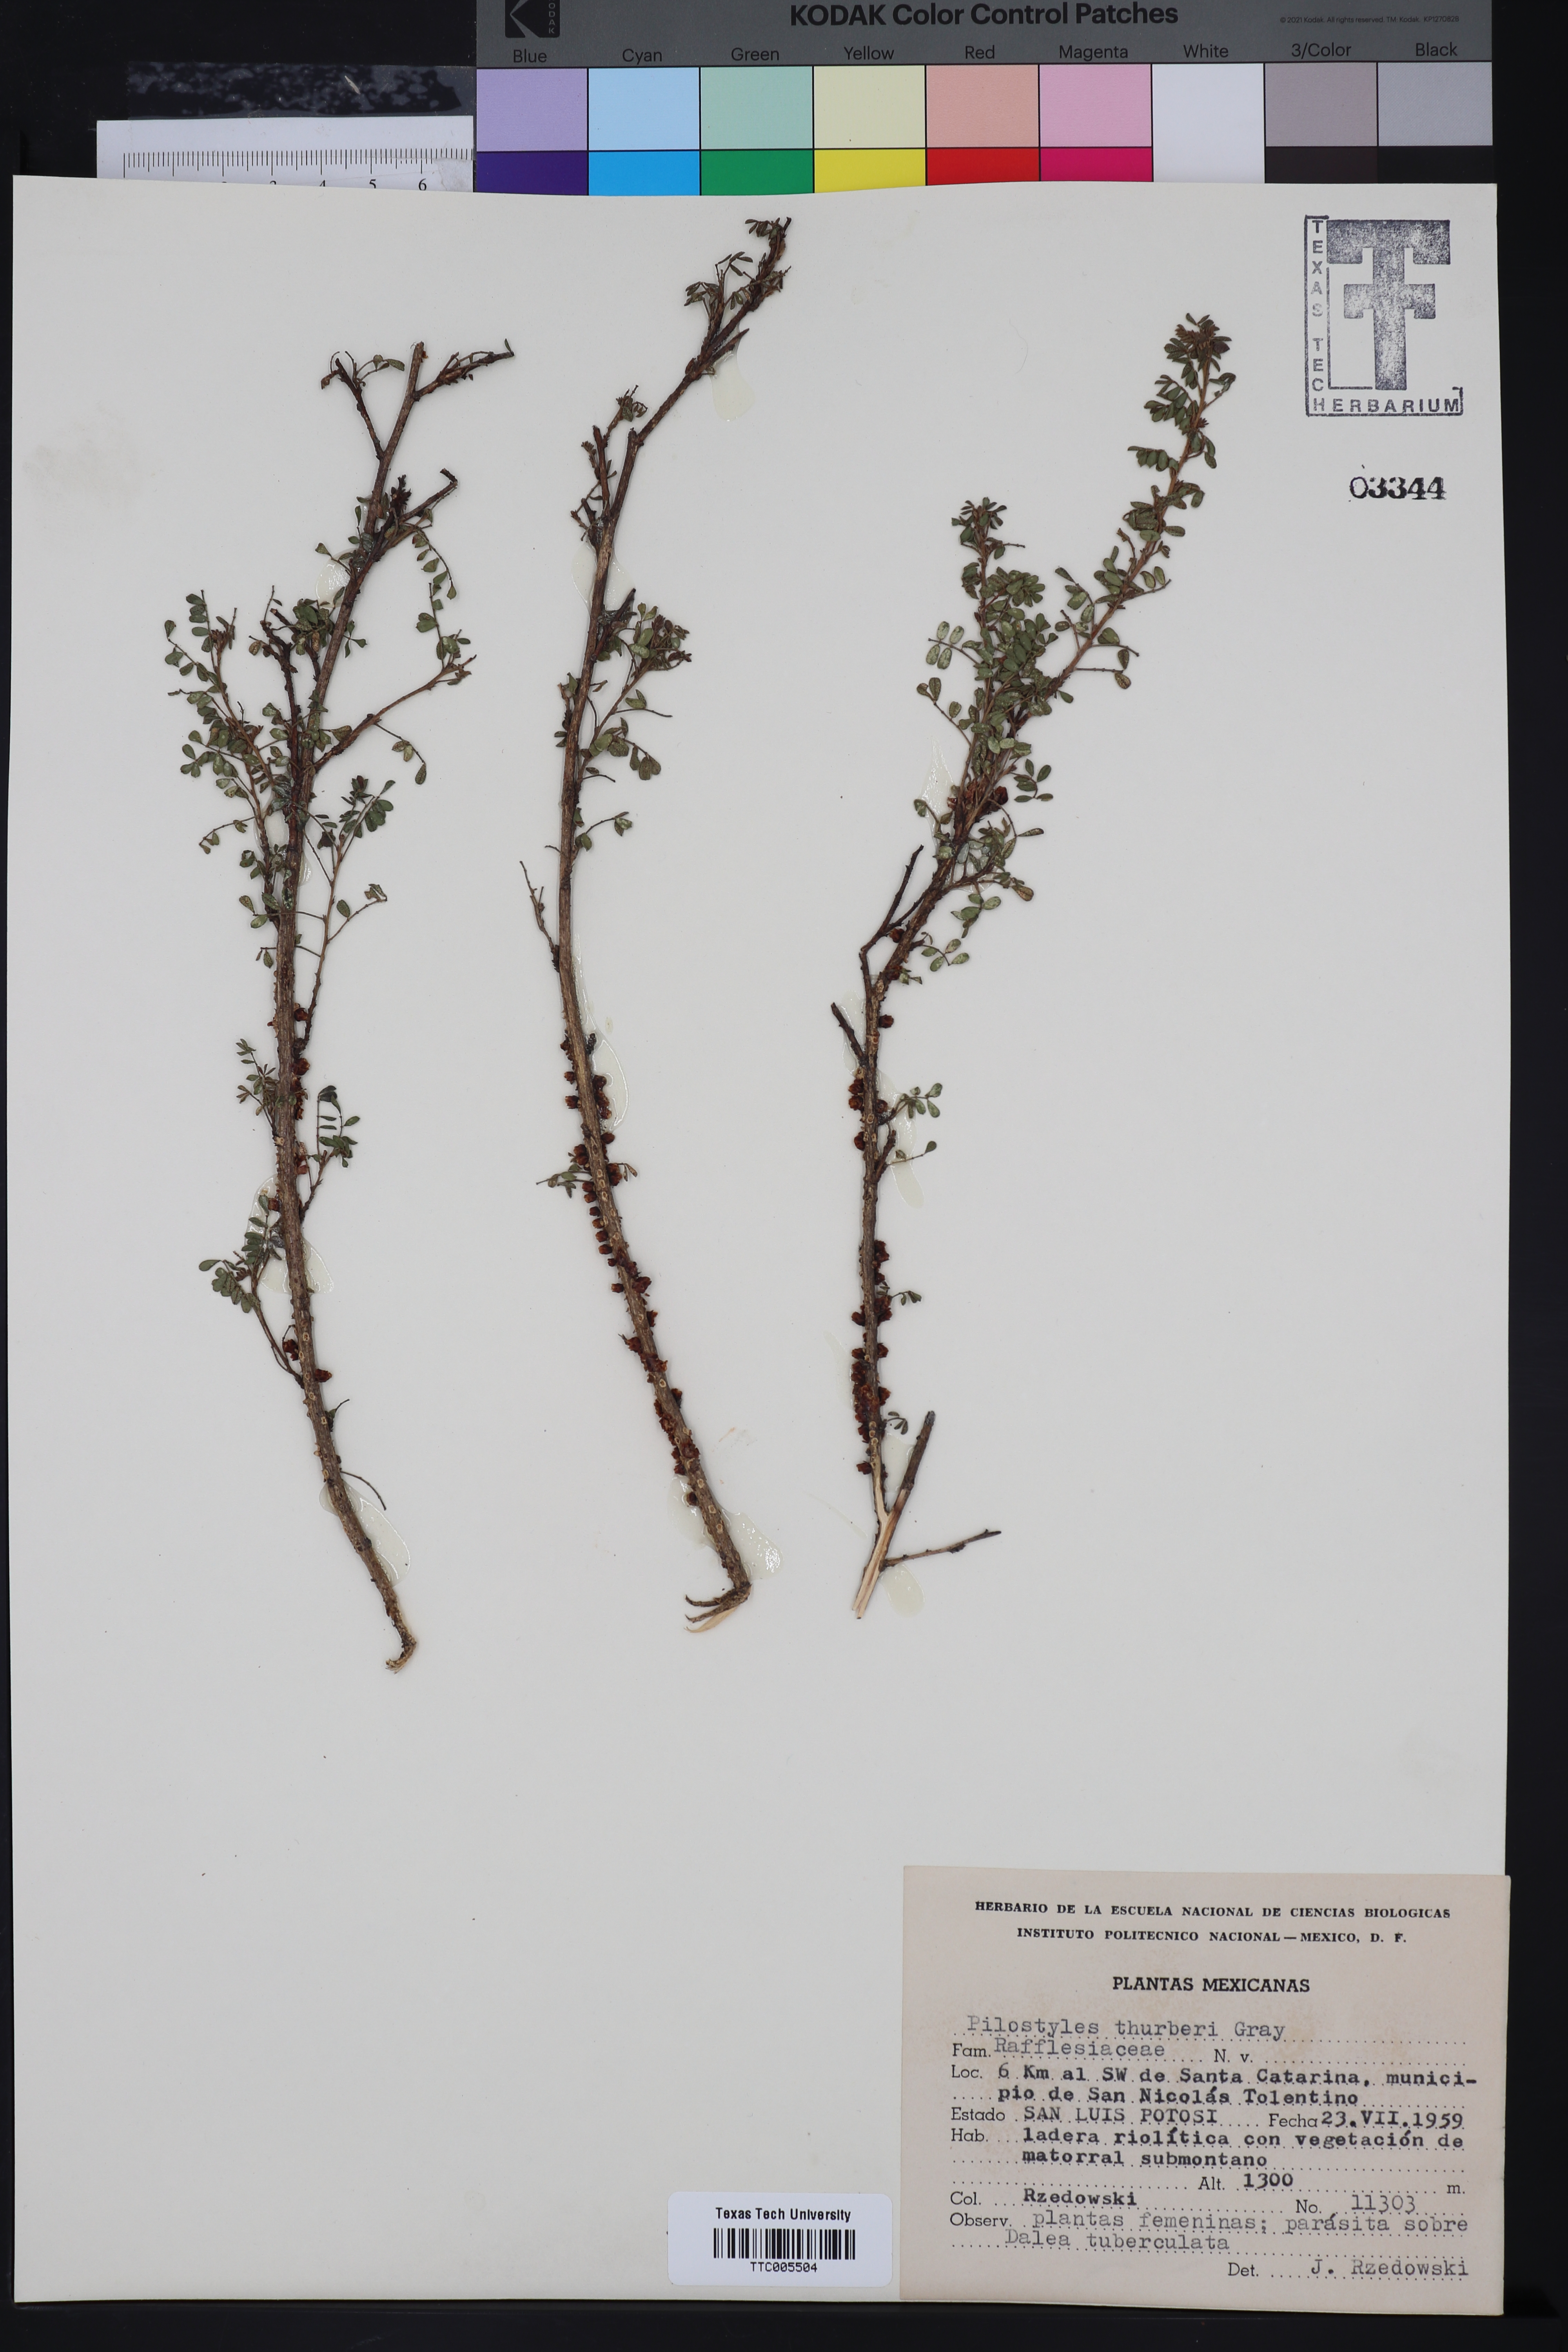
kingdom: Plantae
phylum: Tracheophyta
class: Magnoliopsida
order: Cucurbitales
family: Apodanthaceae
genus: Pilostyles
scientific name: Pilostyles thurberi
